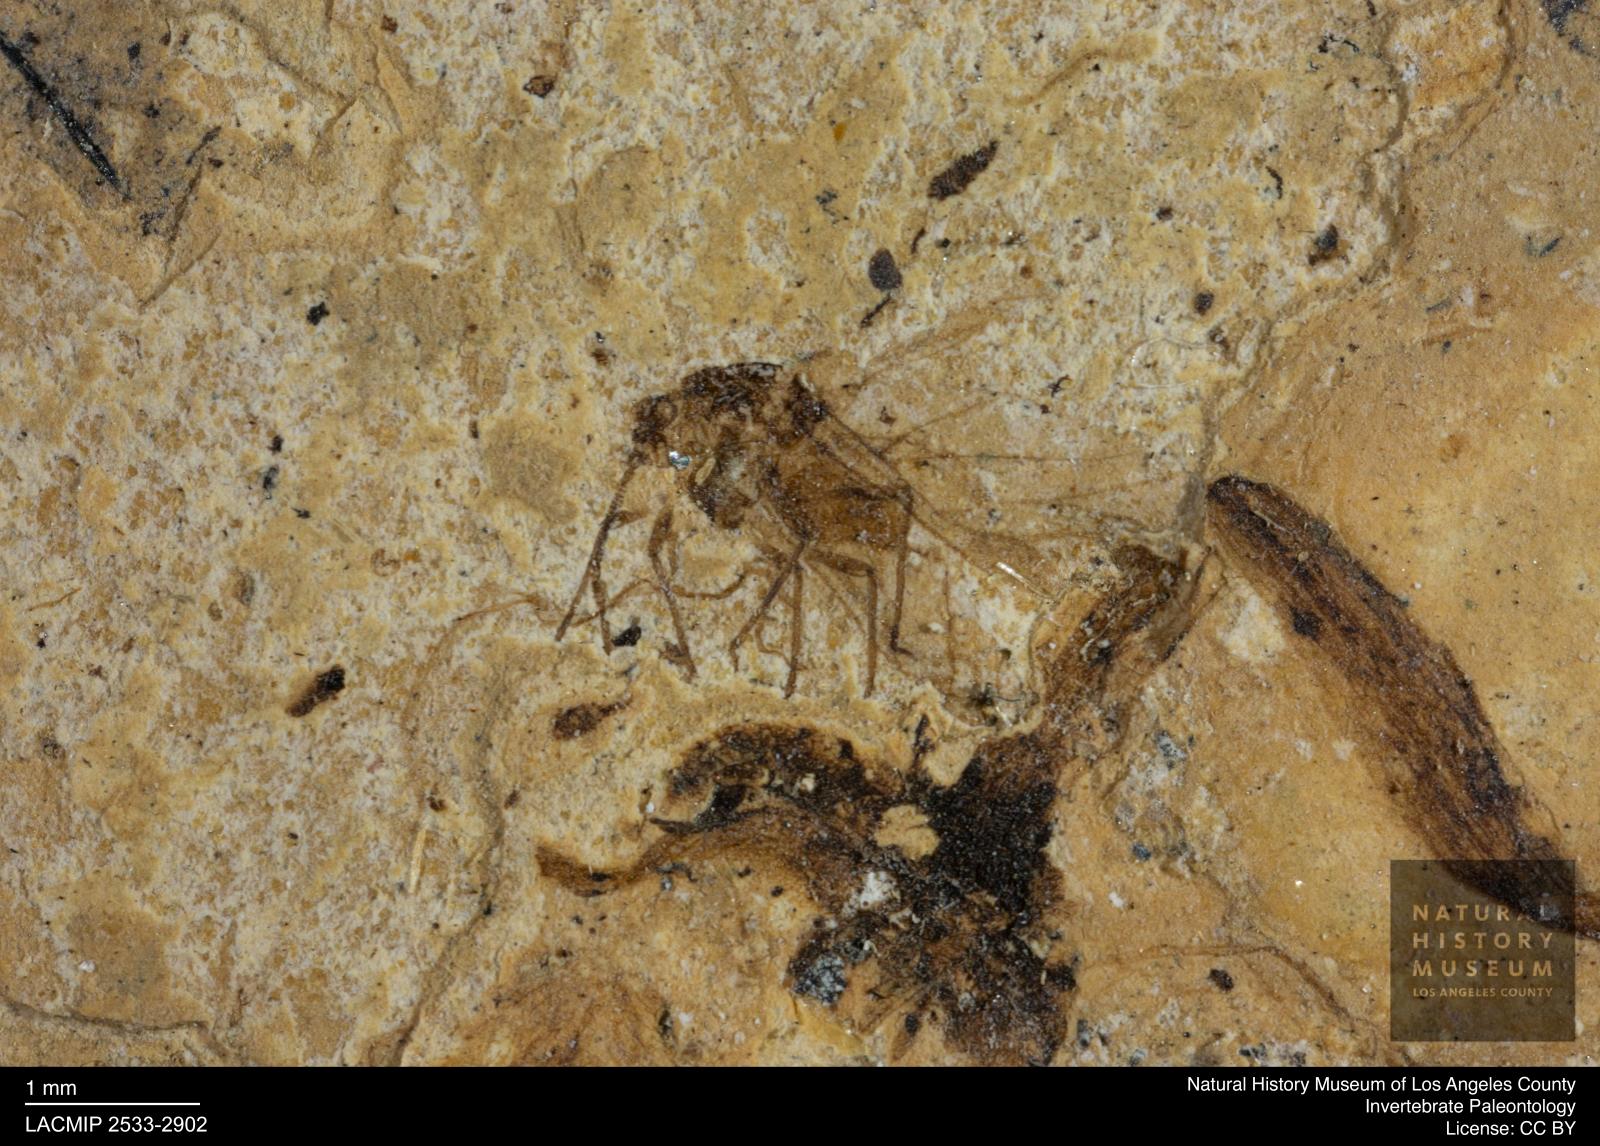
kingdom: Animalia
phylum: Arthropoda
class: Insecta
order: Hemiptera
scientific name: Hemiptera
